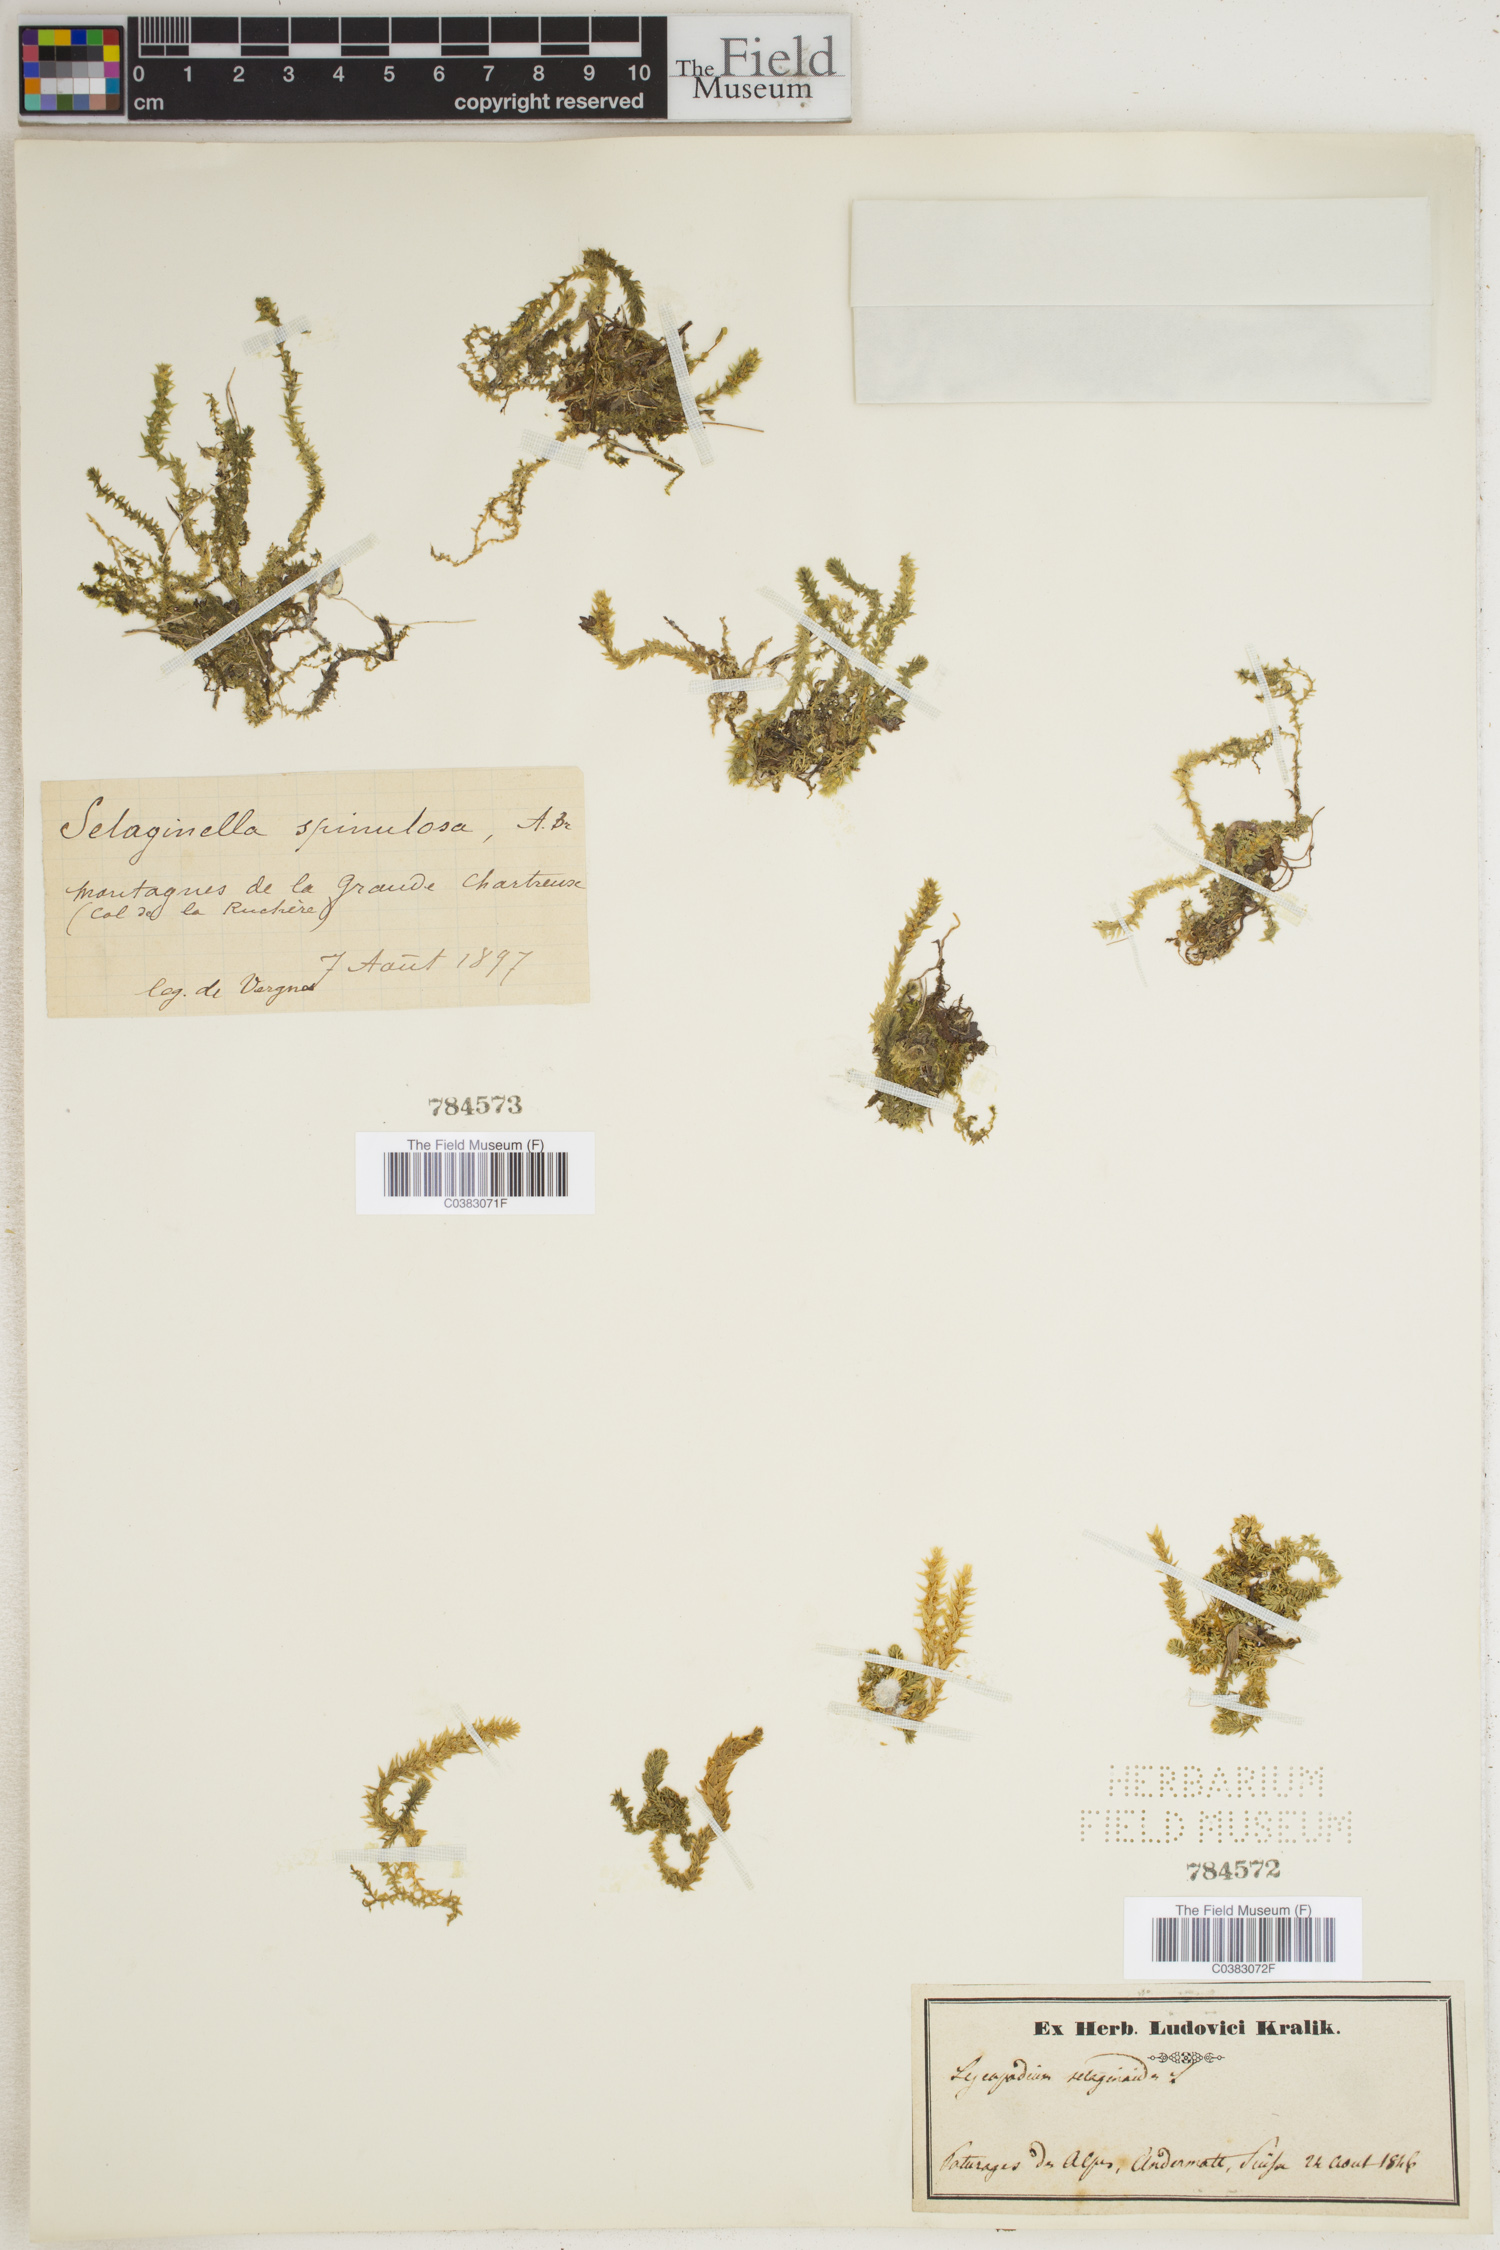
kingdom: Plantae
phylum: Tracheophyta
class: Lycopodiopsida
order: Selaginellales
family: Selaginellaceae
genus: Selaginella
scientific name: Selaginella selaginoides
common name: Prickly mountain-moss
